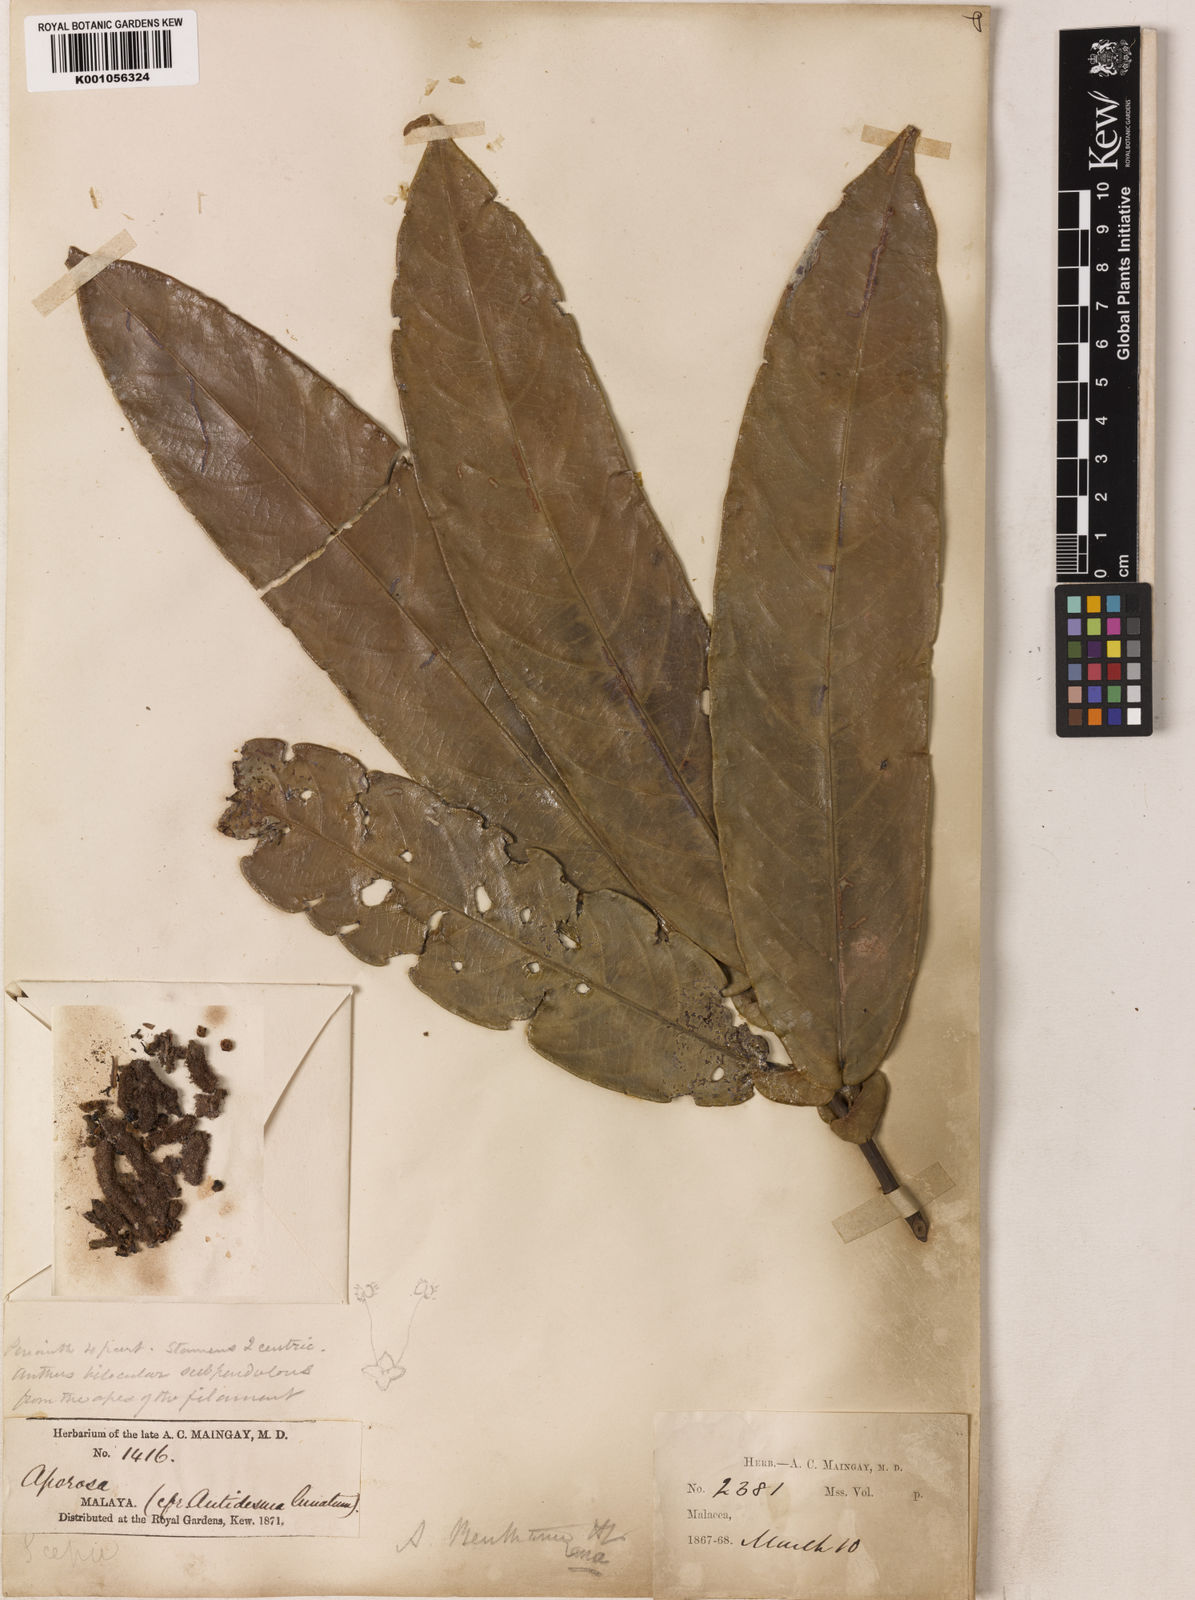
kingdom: Plantae
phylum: Tracheophyta
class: Magnoliopsida
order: Malpighiales
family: Phyllanthaceae
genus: Aporosa
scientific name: Aporosa benthamiana
